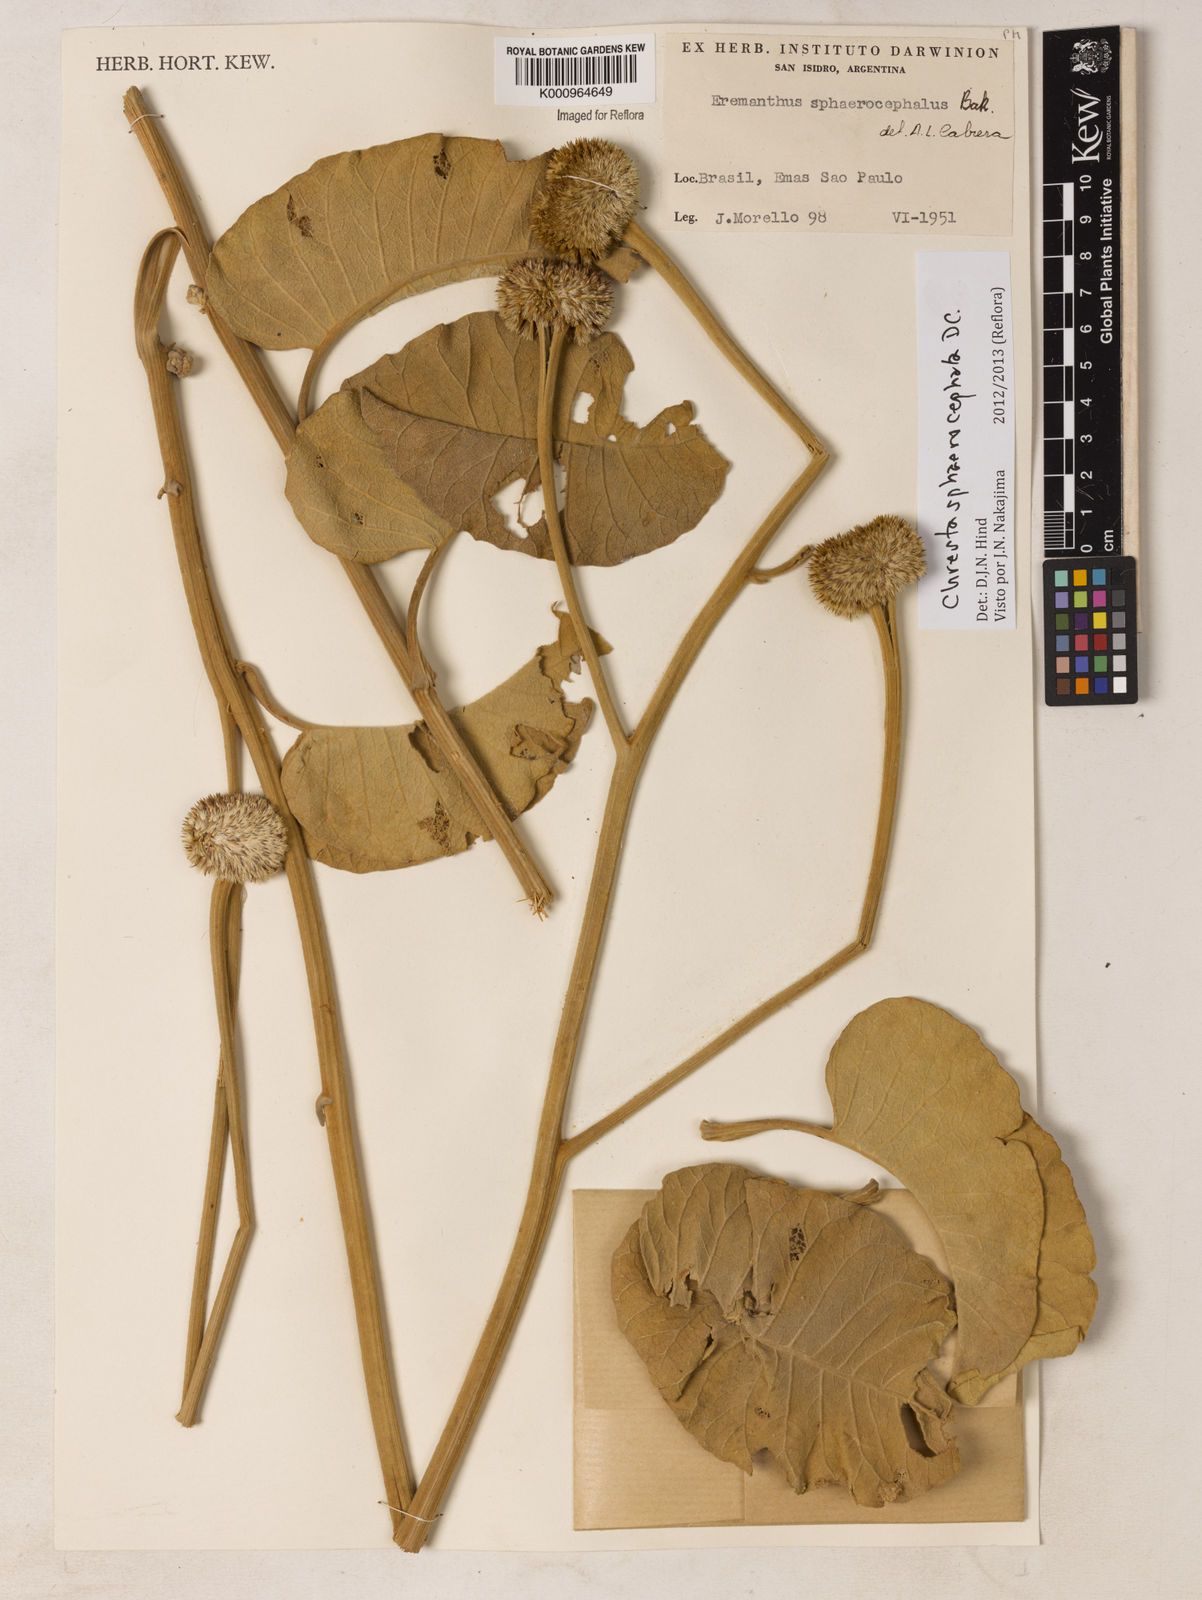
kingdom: Plantae
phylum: Tracheophyta
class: Magnoliopsida
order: Asterales
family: Asteraceae
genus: Chresta
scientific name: Chresta sphaerocephala
